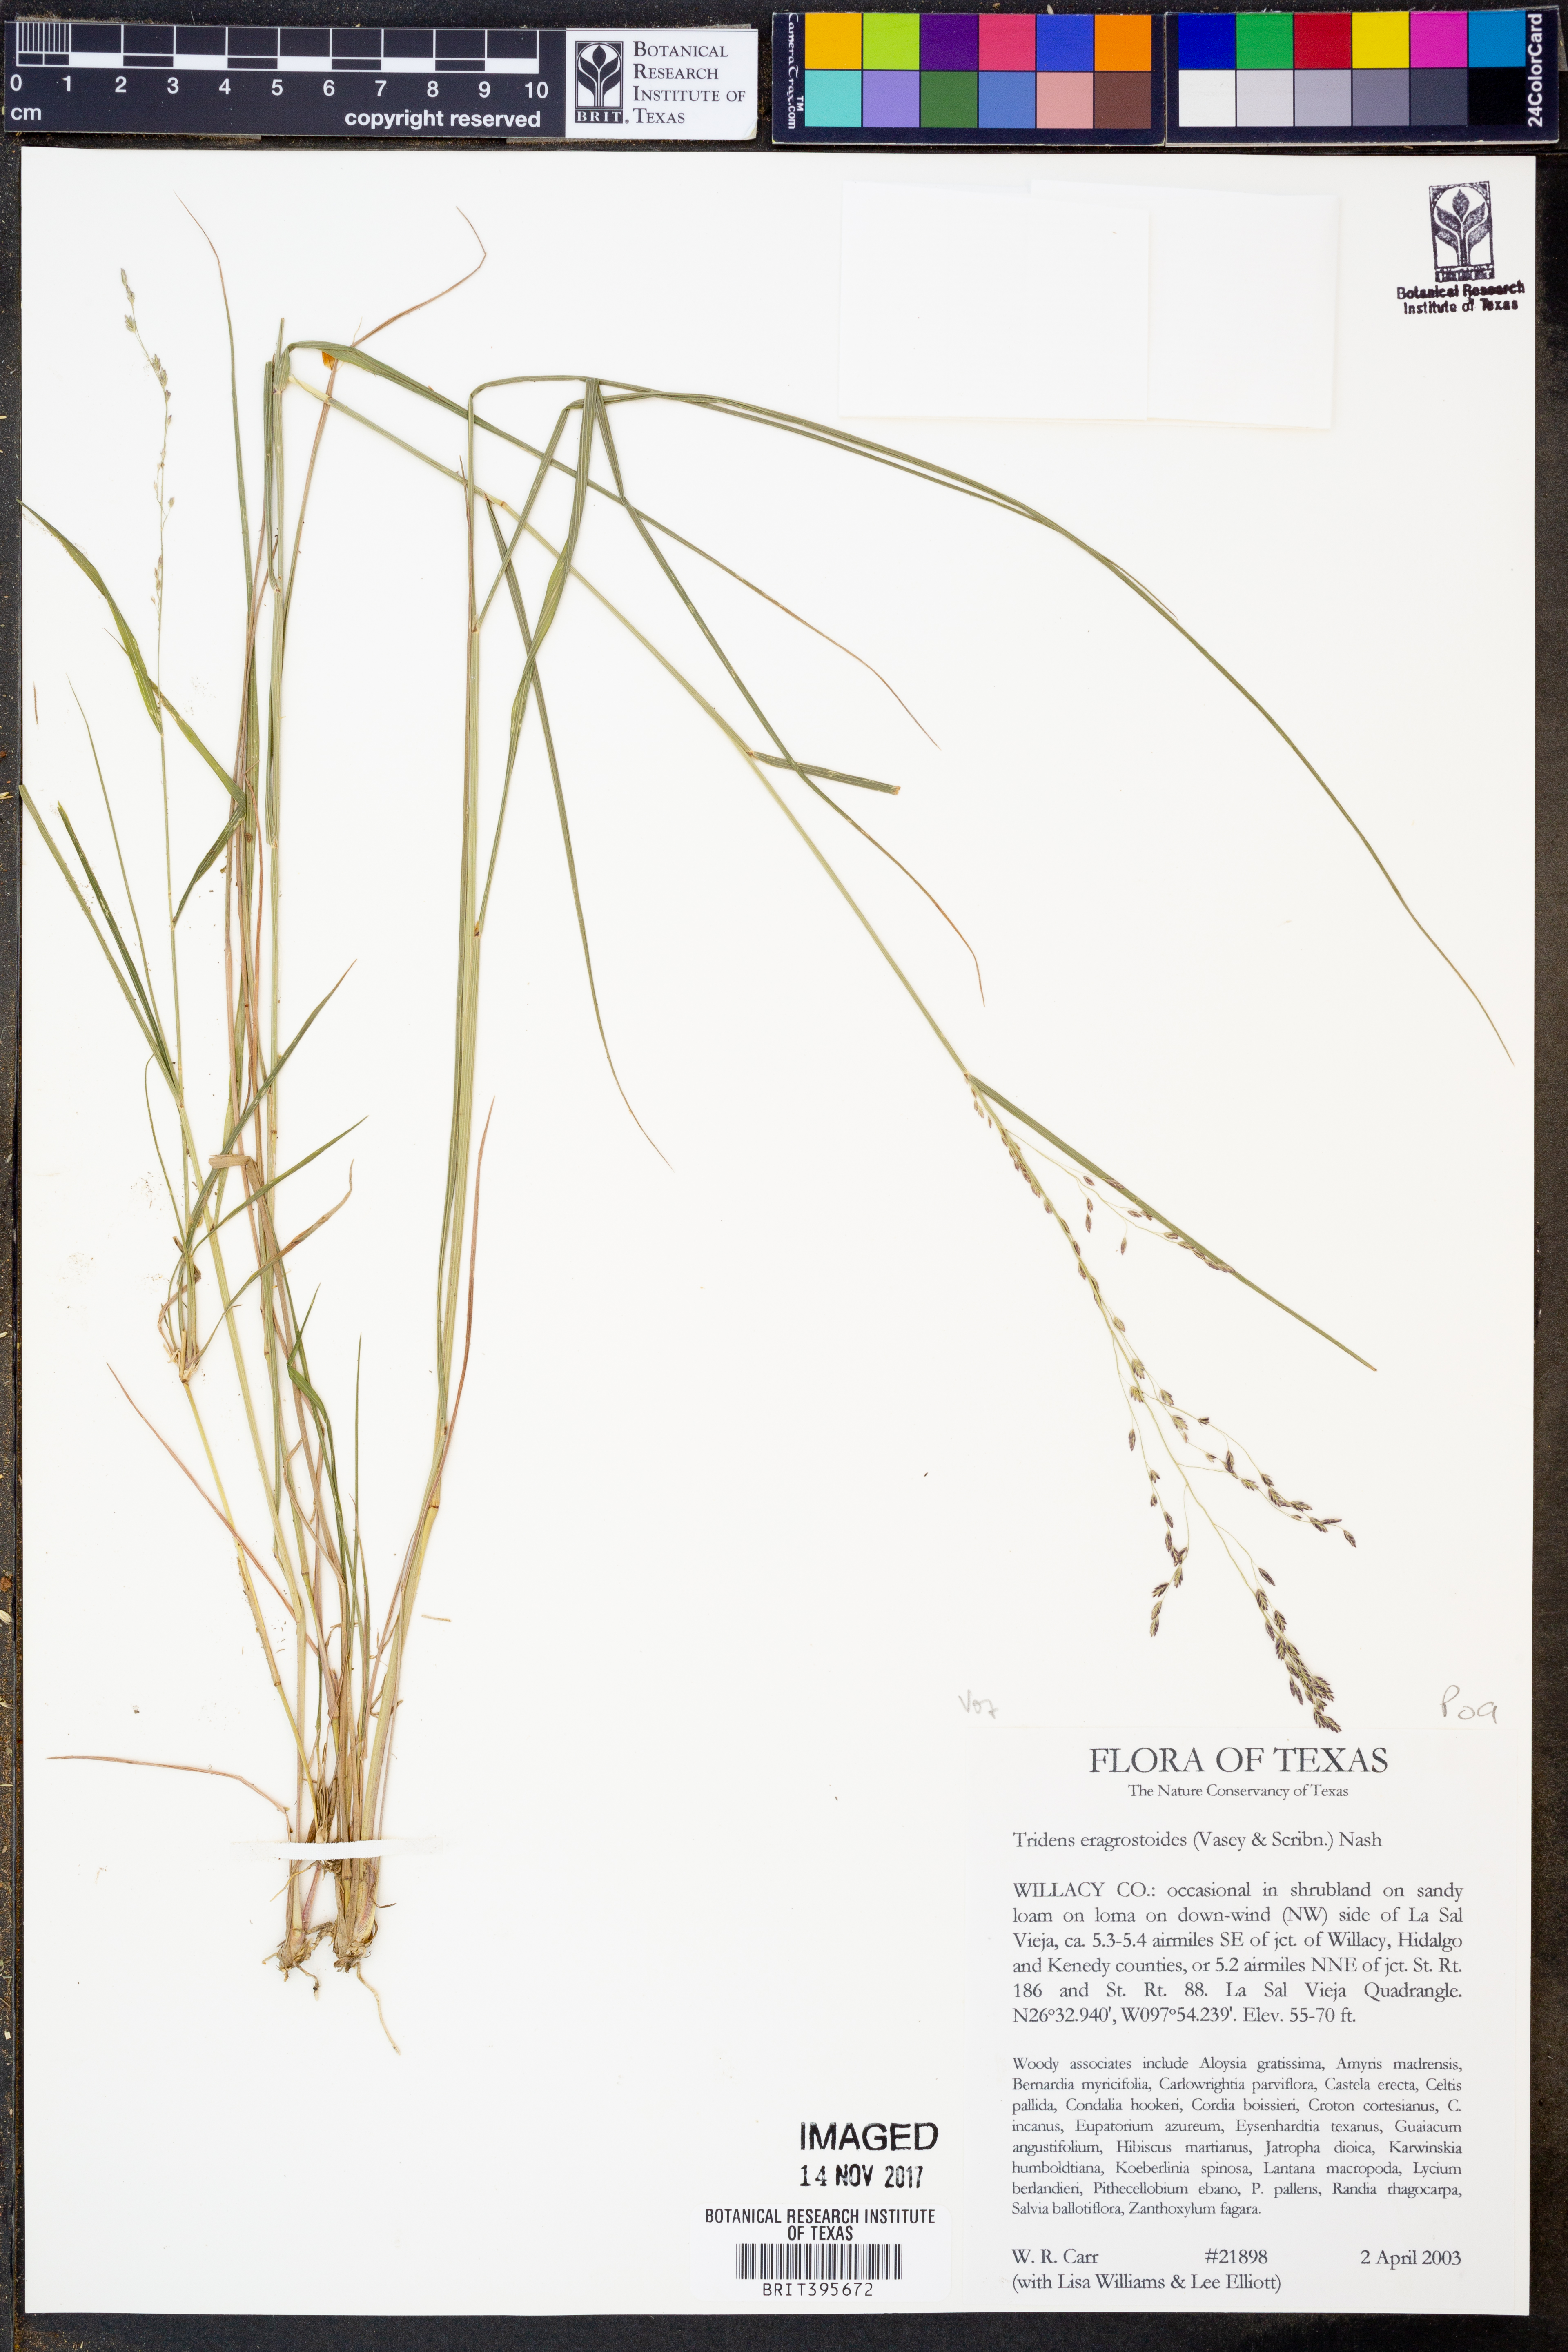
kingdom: Plantae
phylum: Tracheophyta
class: Liliopsida
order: Poales
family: Poaceae
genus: Triplasiella
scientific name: Triplasiella eragrostoides
